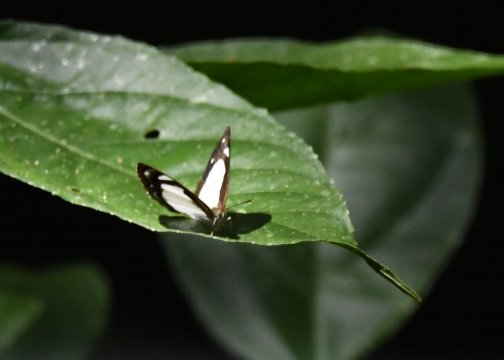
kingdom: Animalia
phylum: Arthropoda
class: Insecta
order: Lepidoptera
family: Nymphalidae
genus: Dynamine
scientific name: Dynamine agacles
